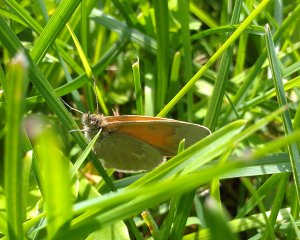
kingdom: Animalia
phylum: Arthropoda
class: Insecta
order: Lepidoptera
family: Nymphalidae
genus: Coenonympha
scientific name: Coenonympha tullia
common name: Large Heath
